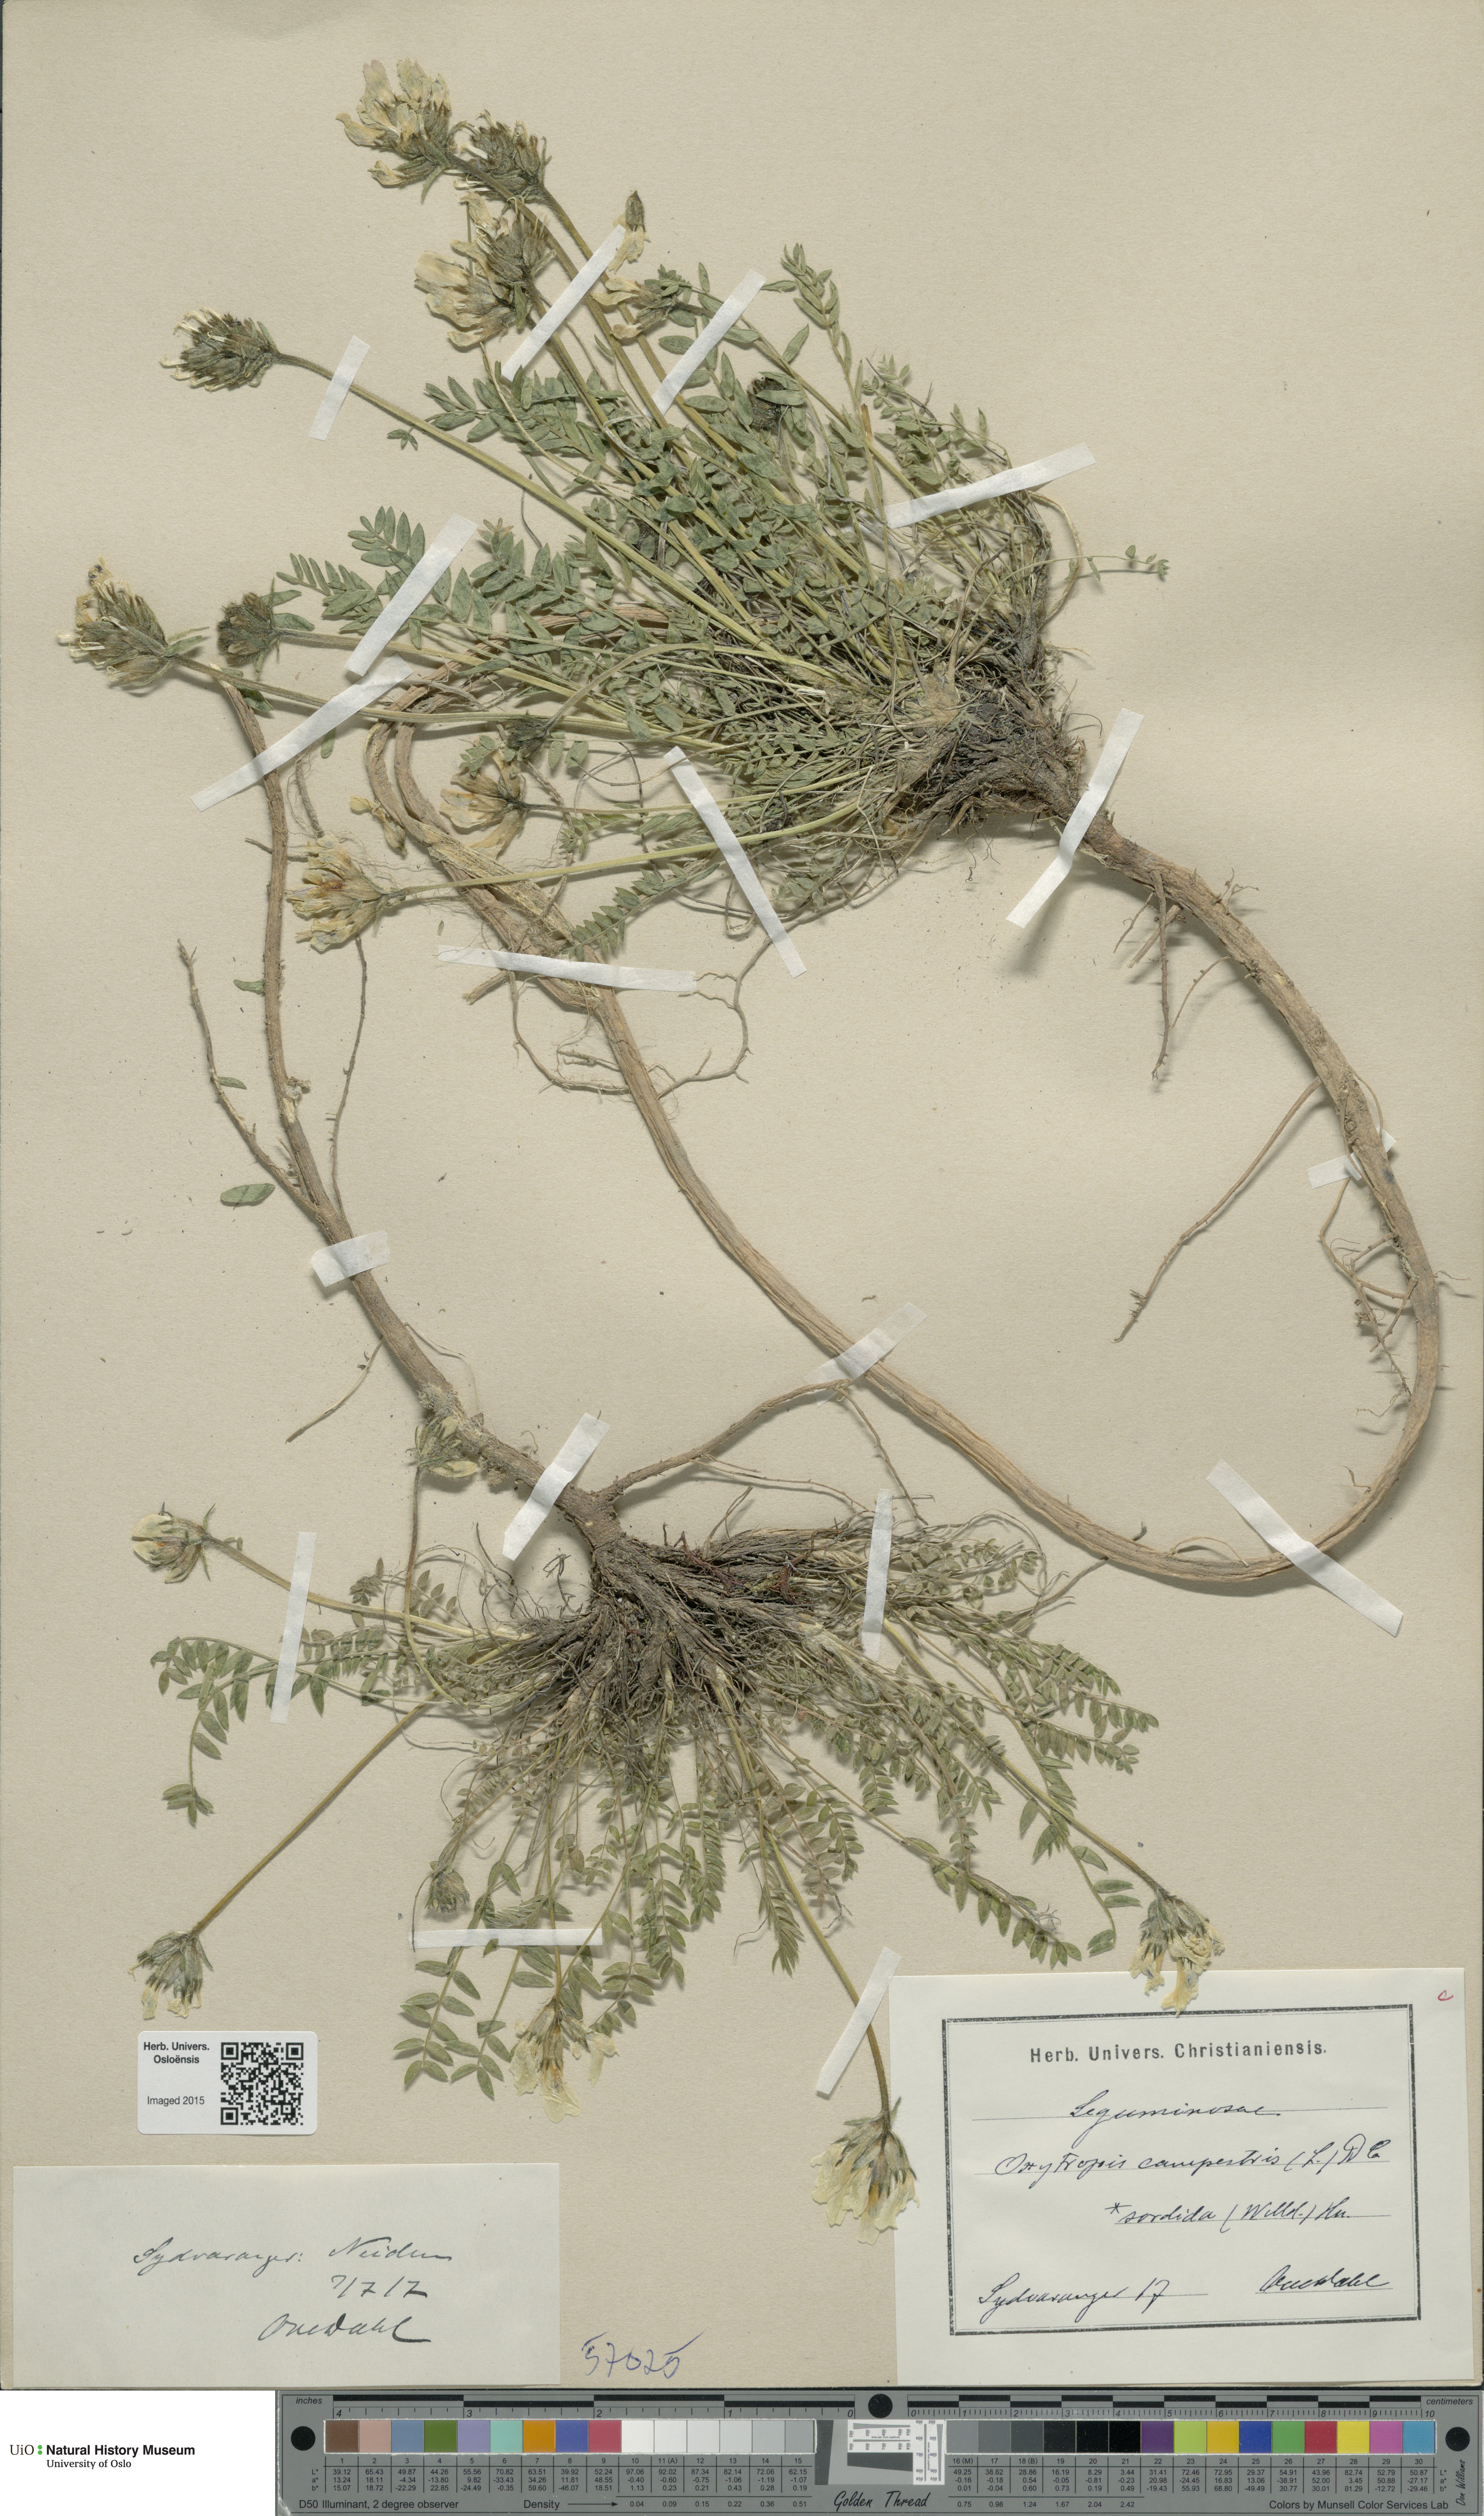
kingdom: Plantae
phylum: Tracheophyta
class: Magnoliopsida
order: Fabales
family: Fabaceae
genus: Oxytropis
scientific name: Oxytropis sordida
